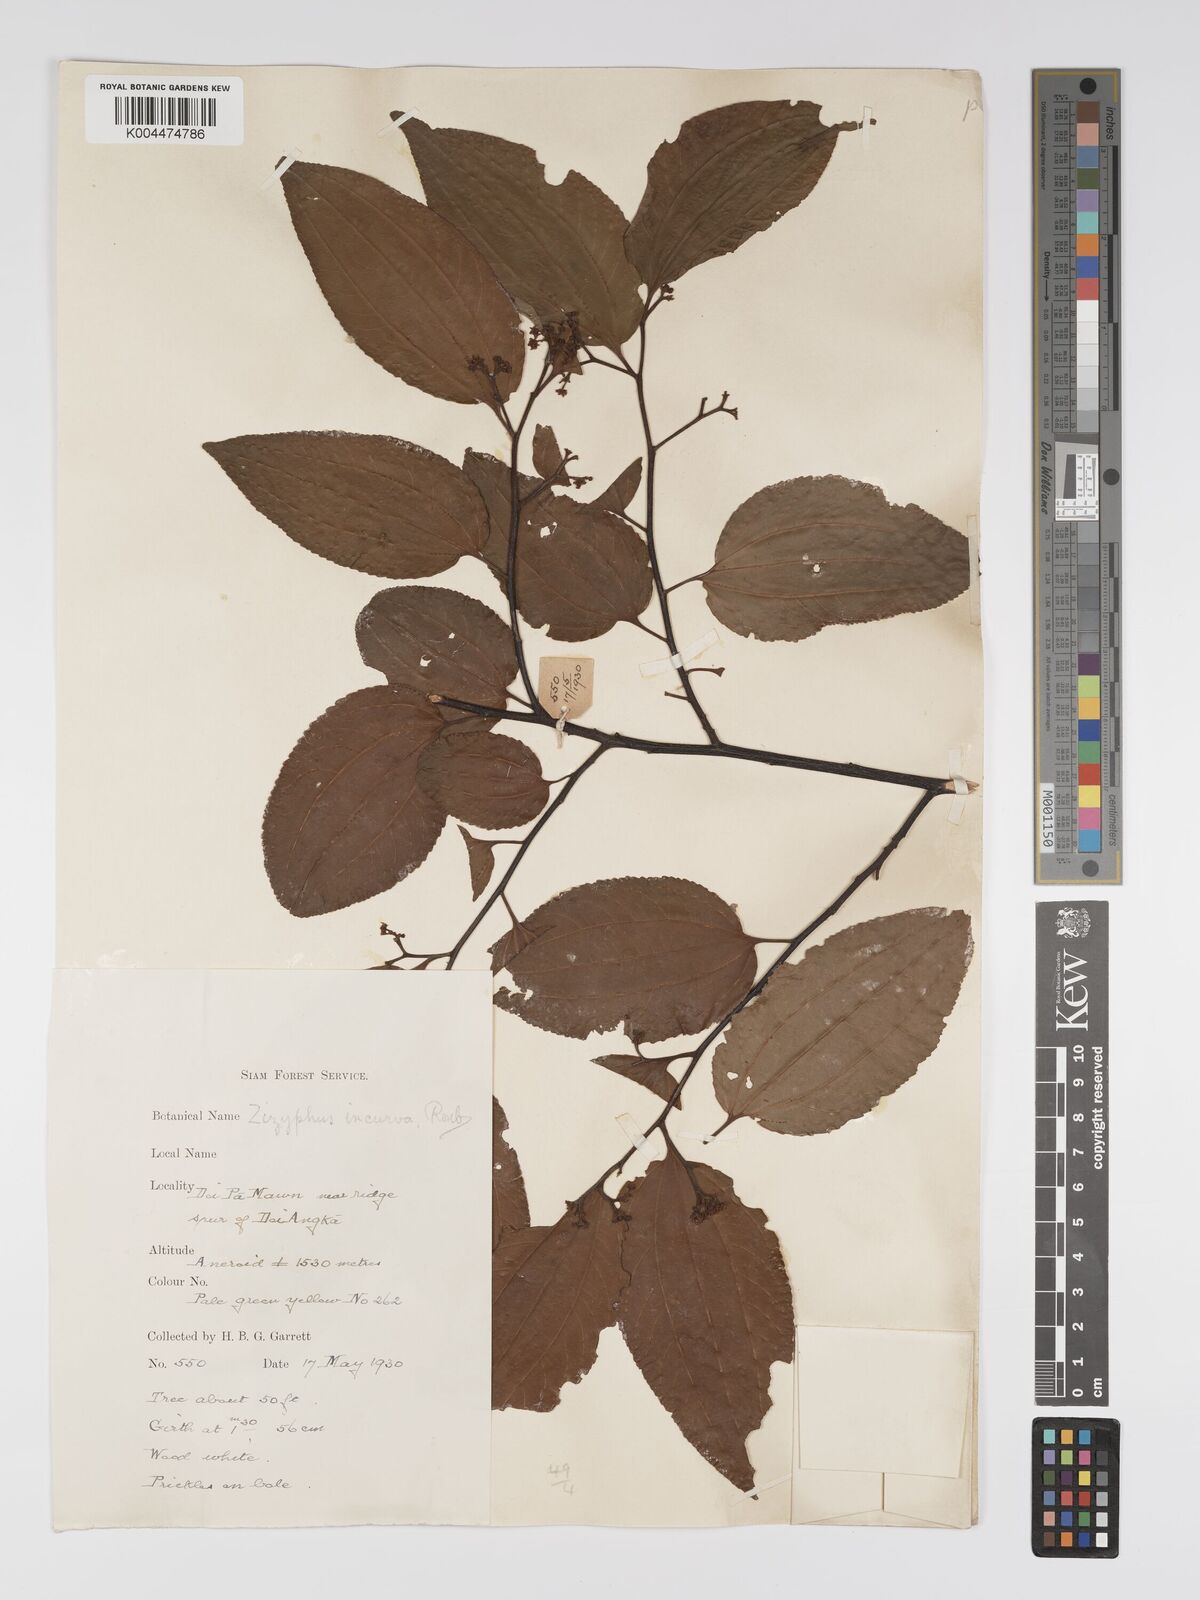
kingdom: Plantae
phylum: Tracheophyta
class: Magnoliopsida
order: Rosales
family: Rhamnaceae
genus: Ziziphus
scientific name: Ziziphus incurva
